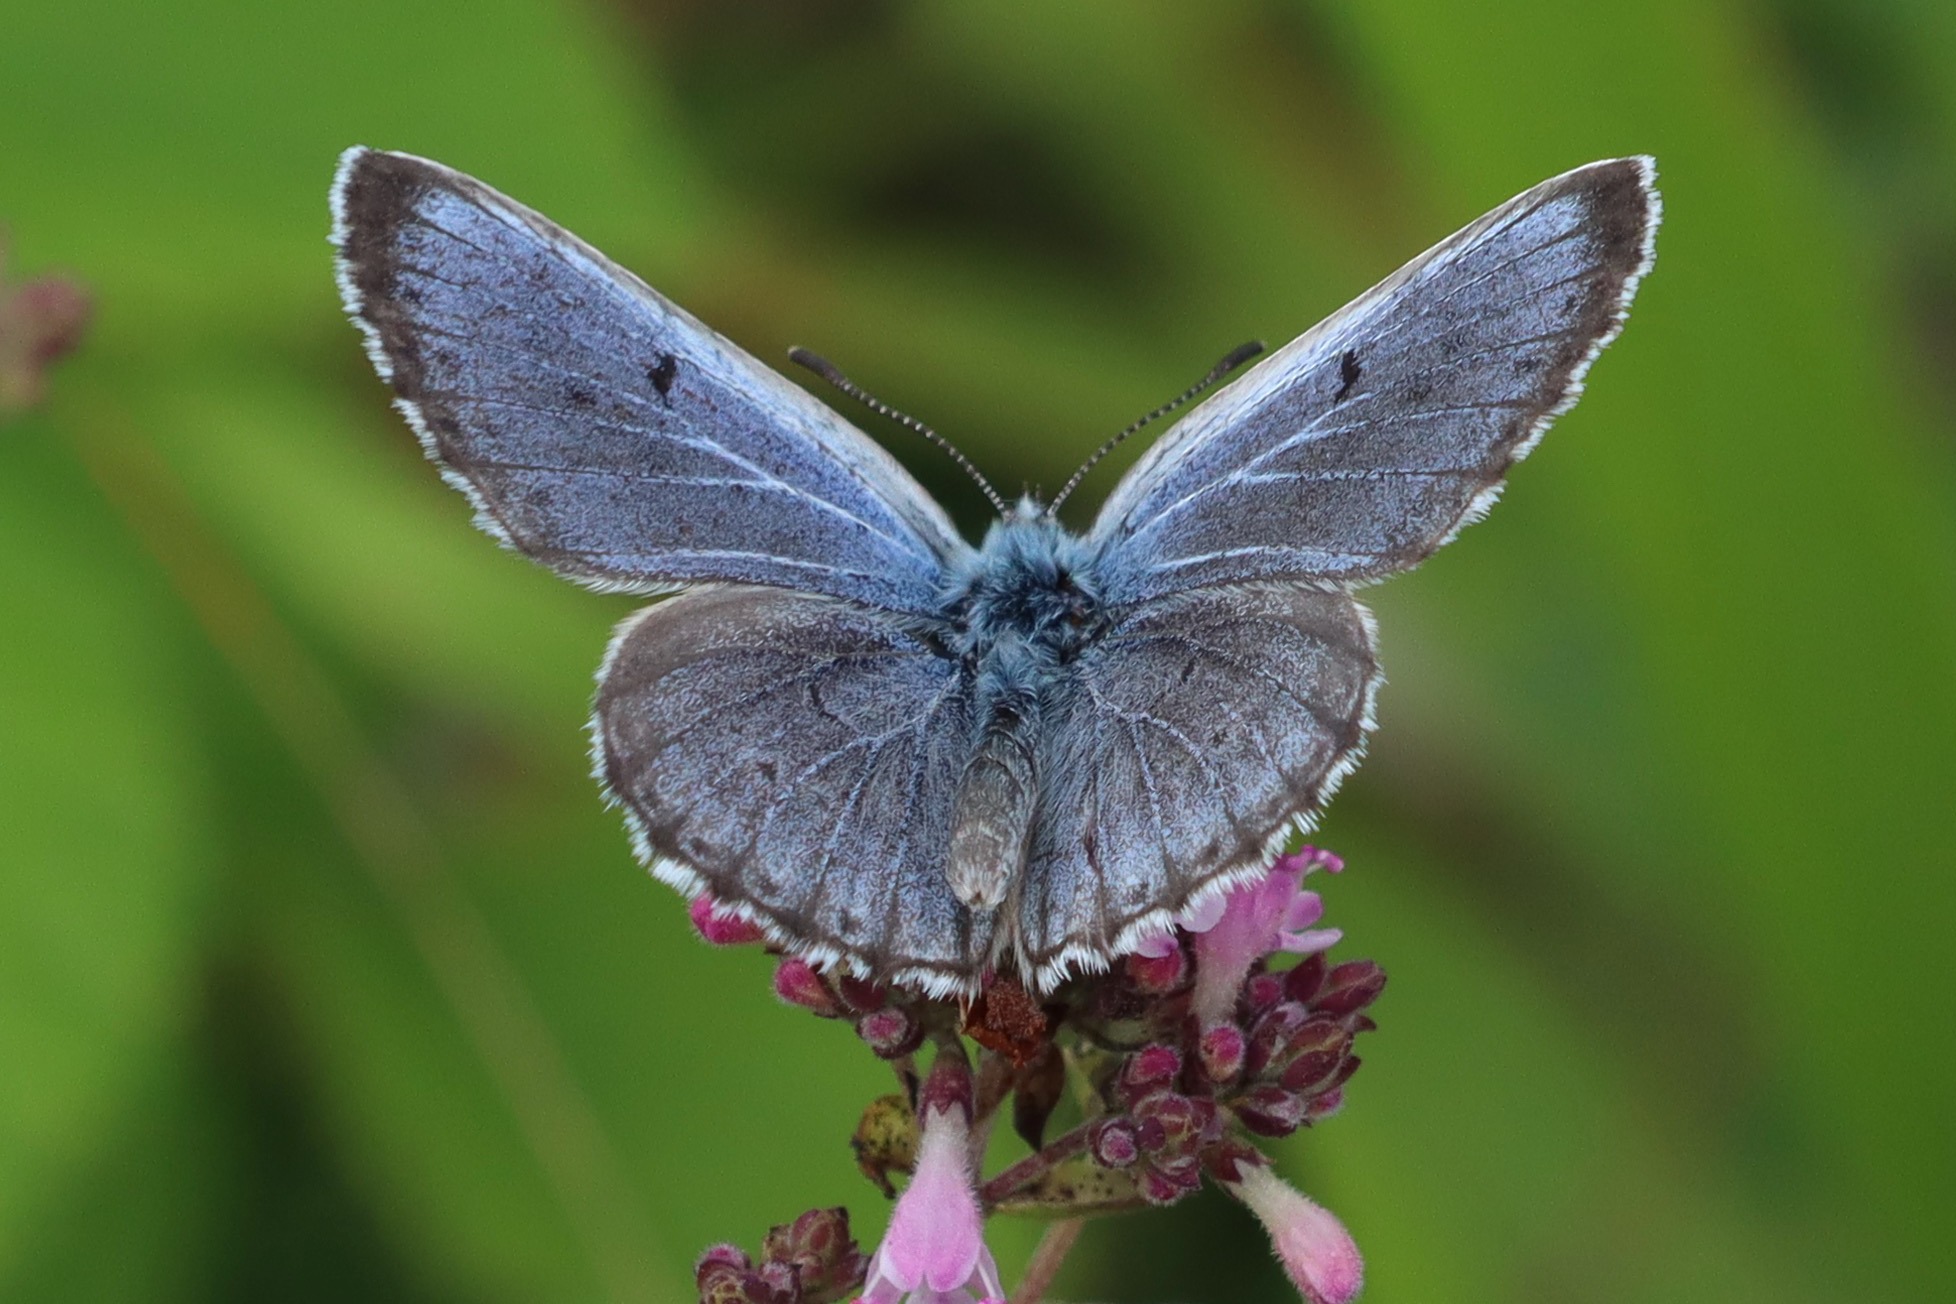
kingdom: Animalia
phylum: Arthropoda
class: Insecta
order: Lepidoptera
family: Lycaenidae
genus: Maculinea
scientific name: Maculinea arion
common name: Sortplettet blåfugl
